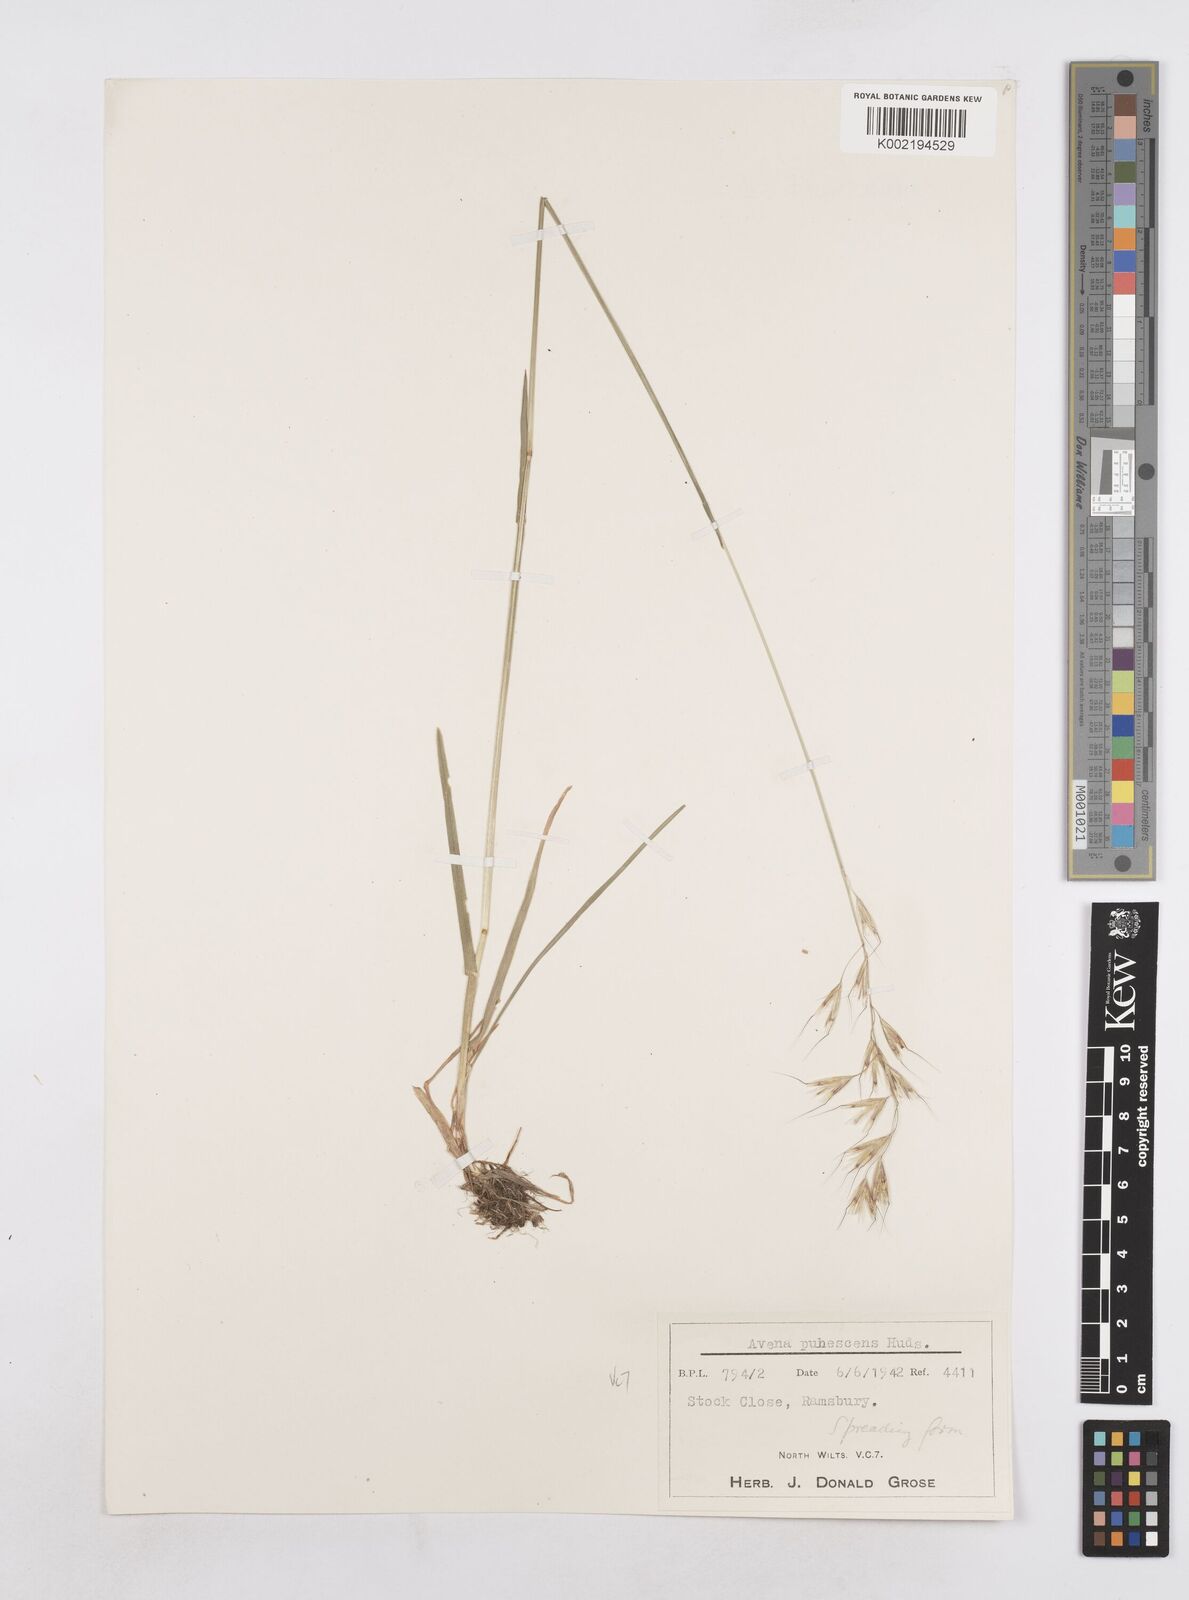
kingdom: Plantae
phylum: Tracheophyta
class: Liliopsida
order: Poales
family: Poaceae
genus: Avenula
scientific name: Avenula pubescens
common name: Downy alpine oatgrass
